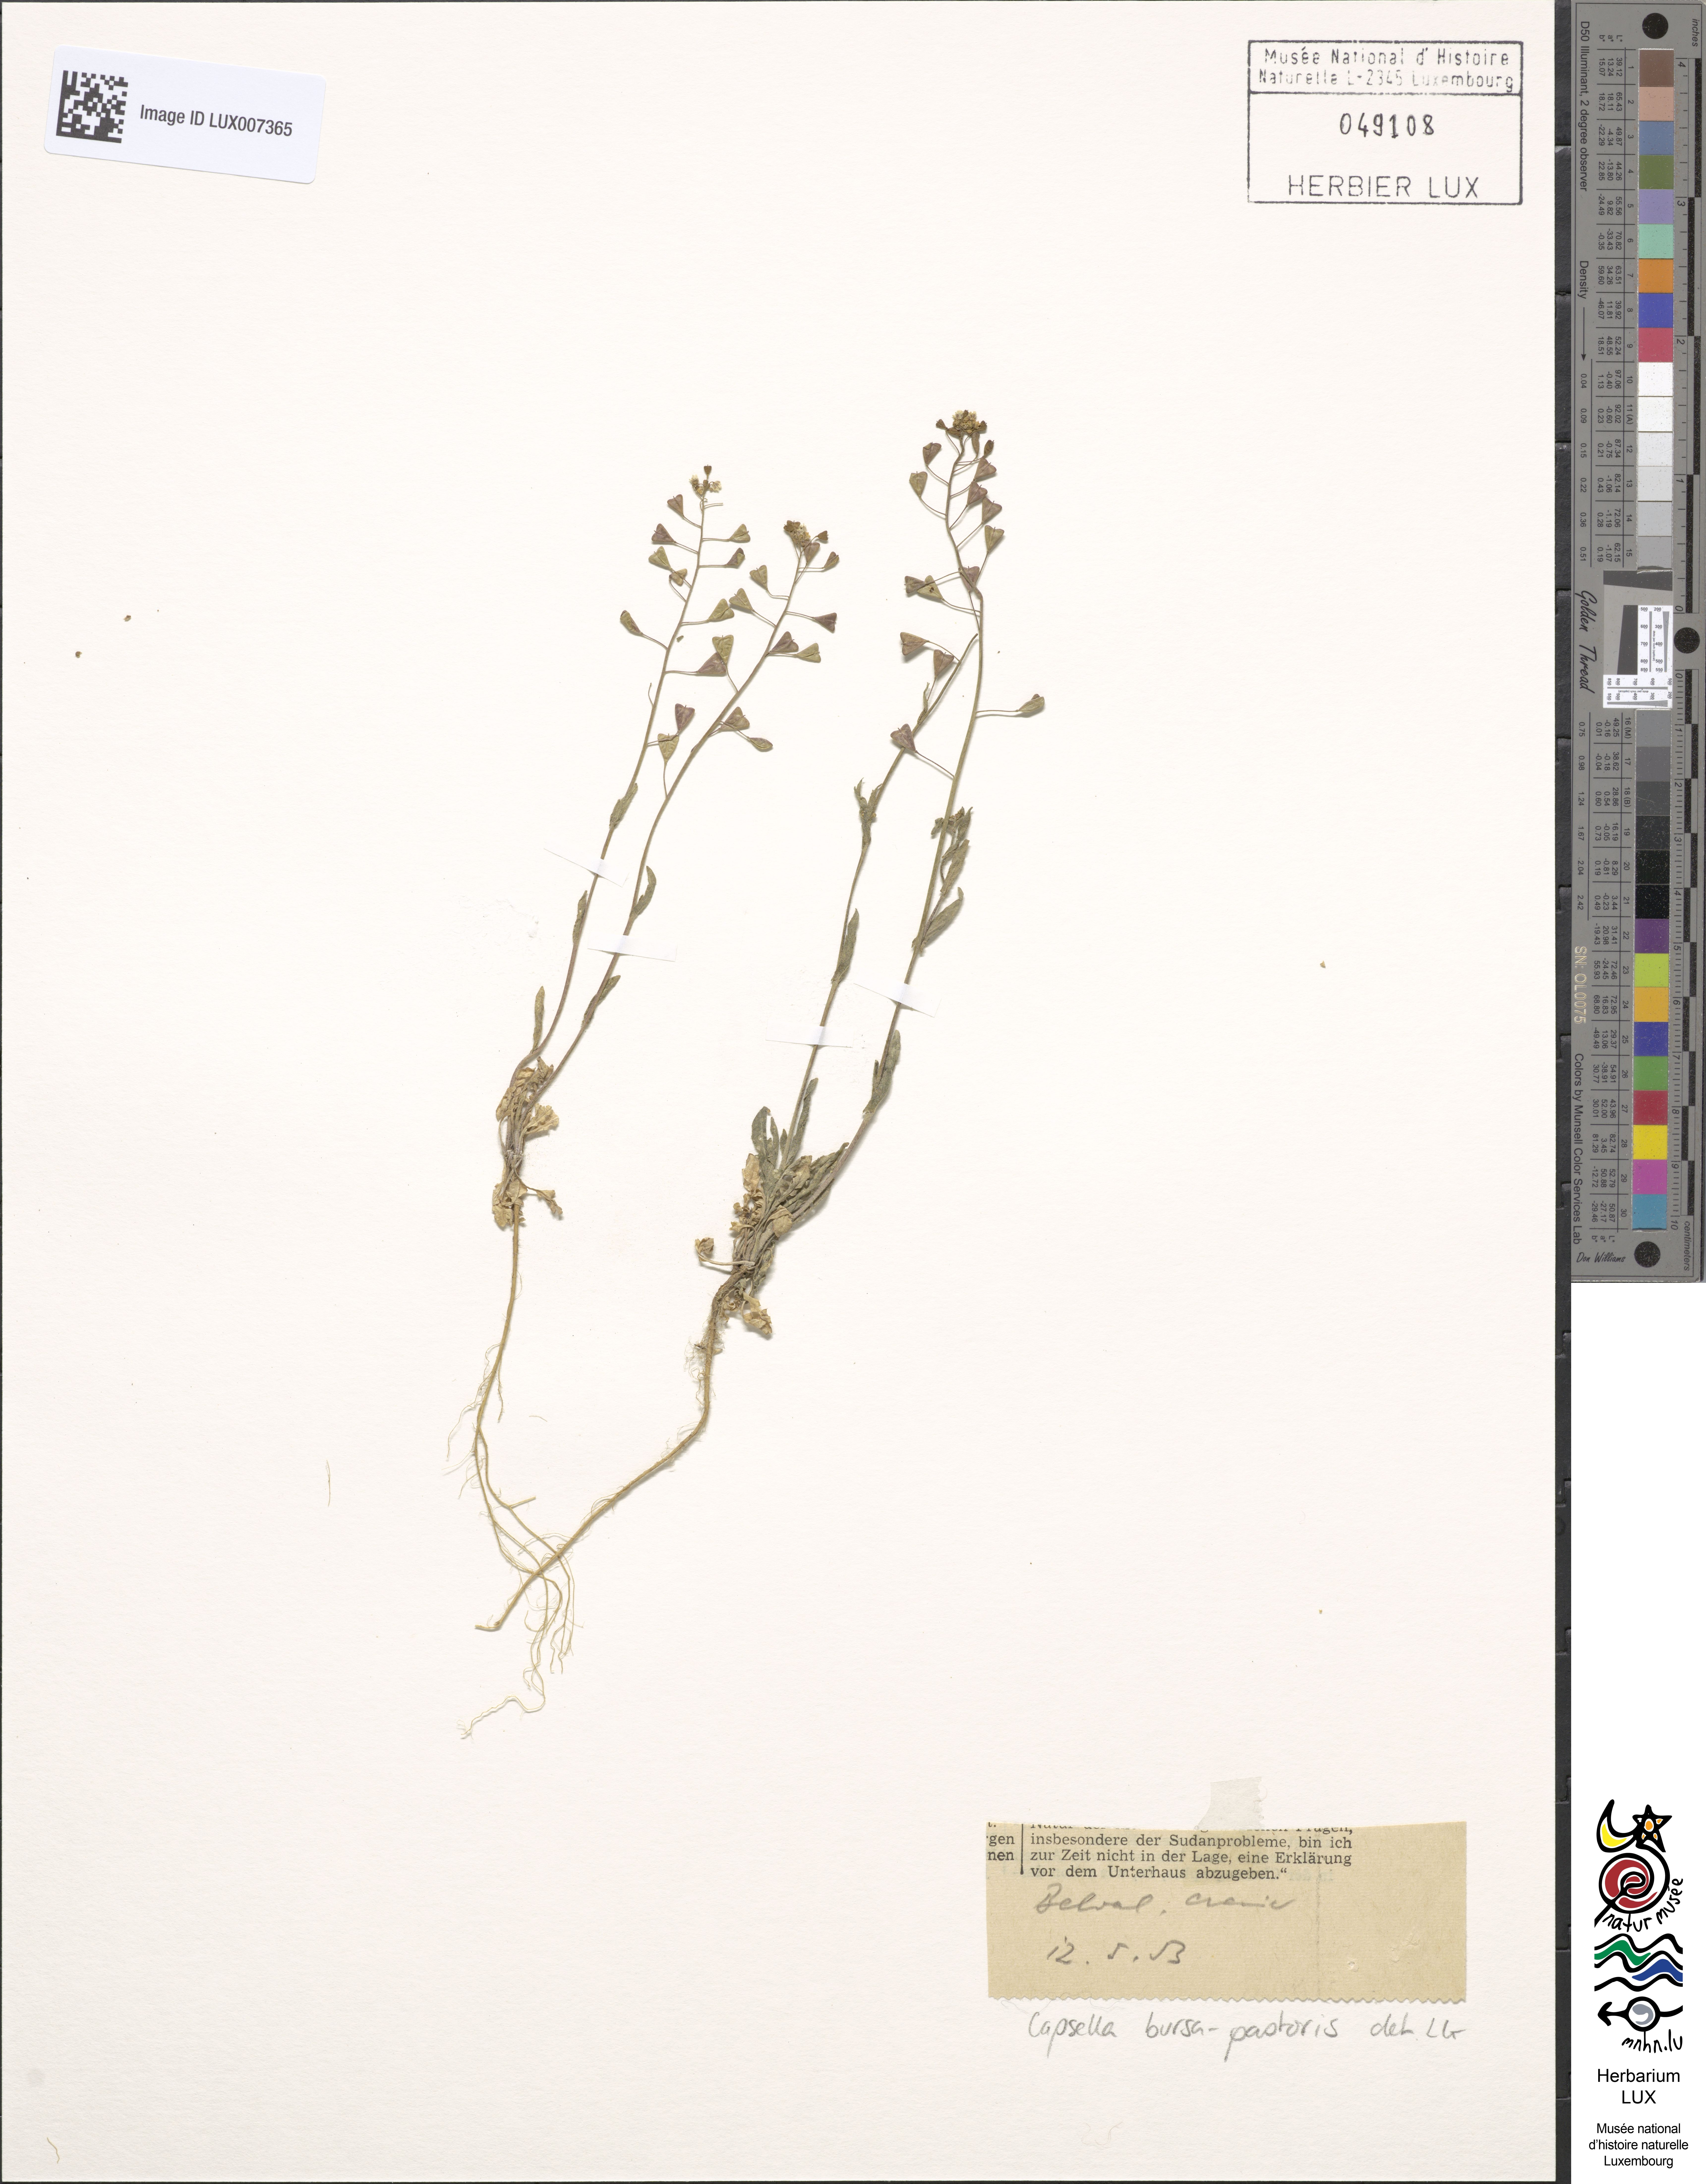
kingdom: Plantae
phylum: Tracheophyta
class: Magnoliopsida
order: Brassicales
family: Brassicaceae
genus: Capsella
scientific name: Capsella bursa-pastoris
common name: Shepherd's purse
